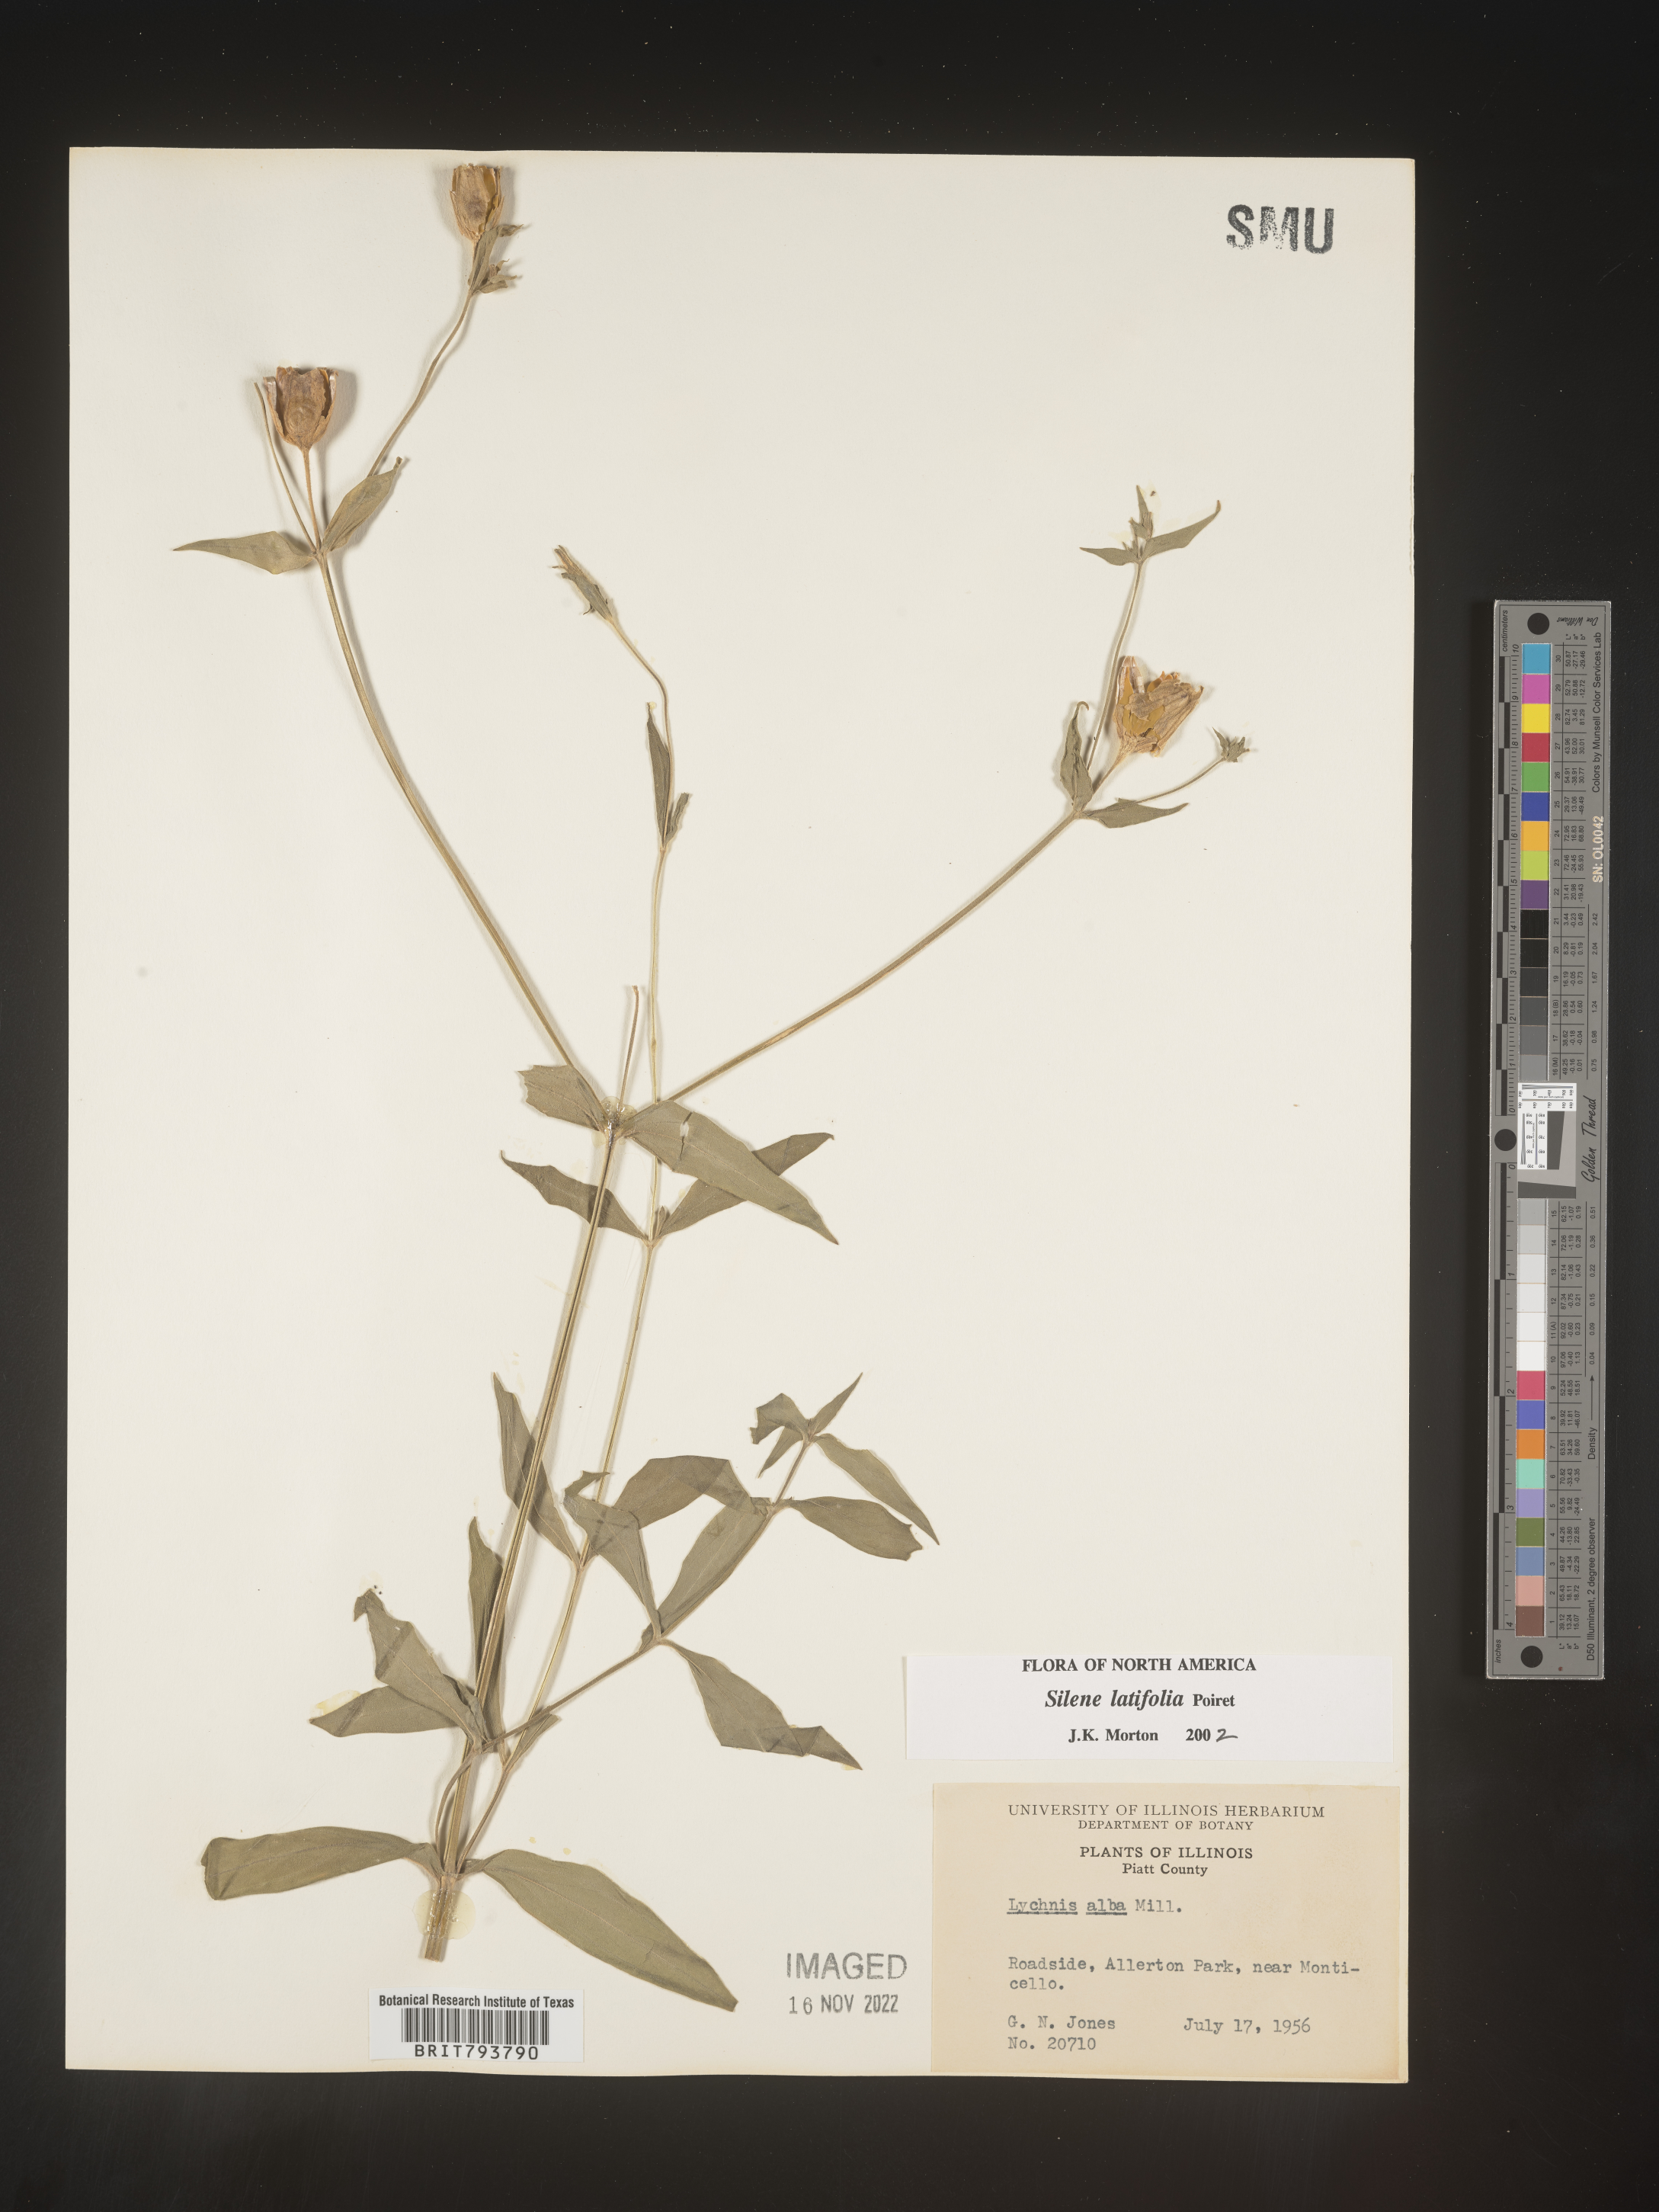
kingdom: Plantae
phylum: Tracheophyta
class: Magnoliopsida
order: Caryophyllales
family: Caryophyllaceae
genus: Silene
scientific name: Silene latifolia
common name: White campion
